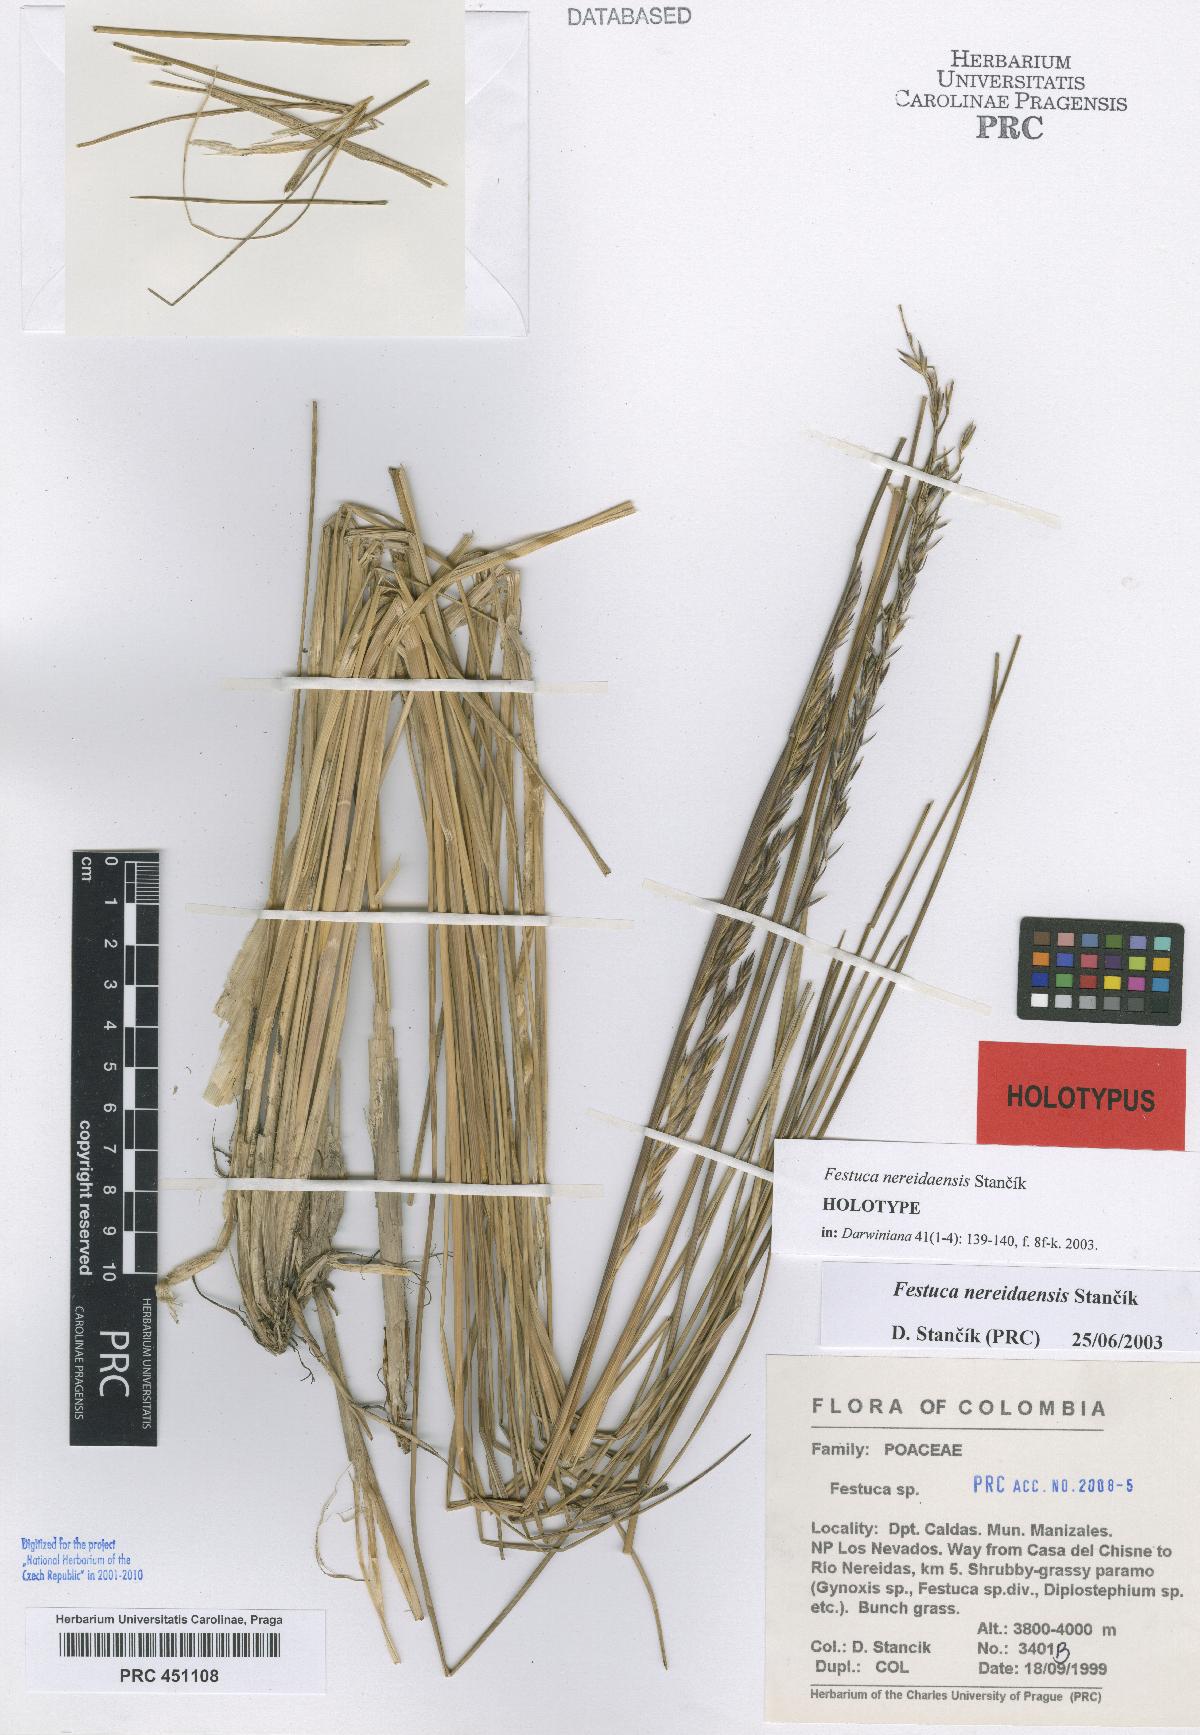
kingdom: Plantae
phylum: Tracheophyta
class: Liliopsida
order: Poales
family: Poaceae
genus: Festuca
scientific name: Festuca nereidaensis
